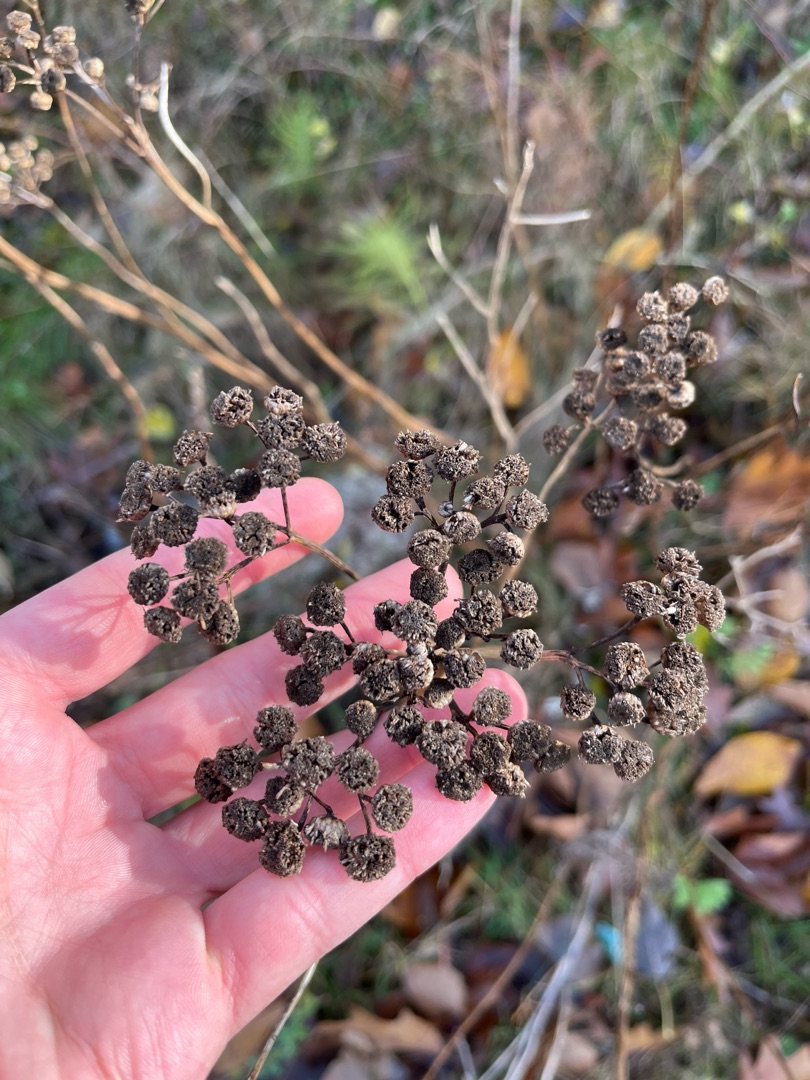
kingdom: Plantae
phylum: Tracheophyta
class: Magnoliopsida
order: Asterales
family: Asteraceae
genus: Tanacetum
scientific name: Tanacetum vulgare
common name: Rejnfan
